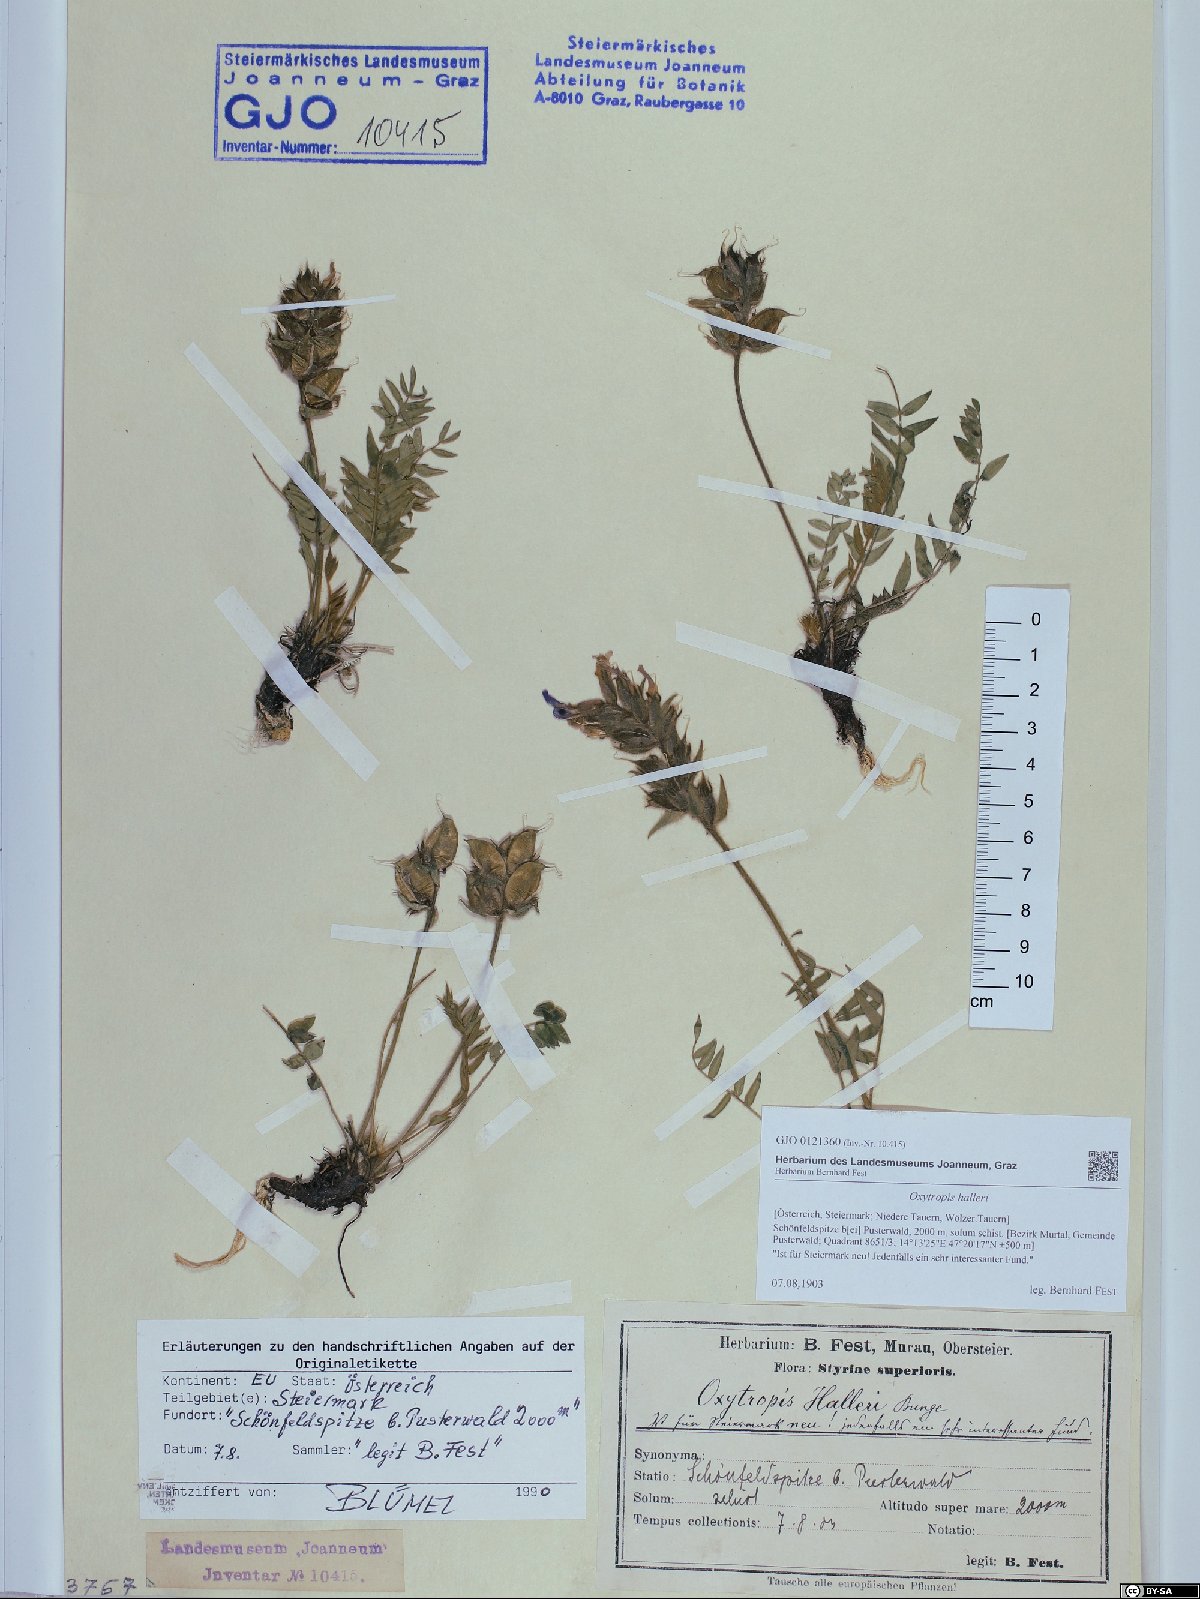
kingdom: Plantae
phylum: Tracheophyta
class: Magnoliopsida
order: Fabales
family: Fabaceae
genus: Oxytropis
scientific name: Oxytropis halleri
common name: Purple oxytropis
